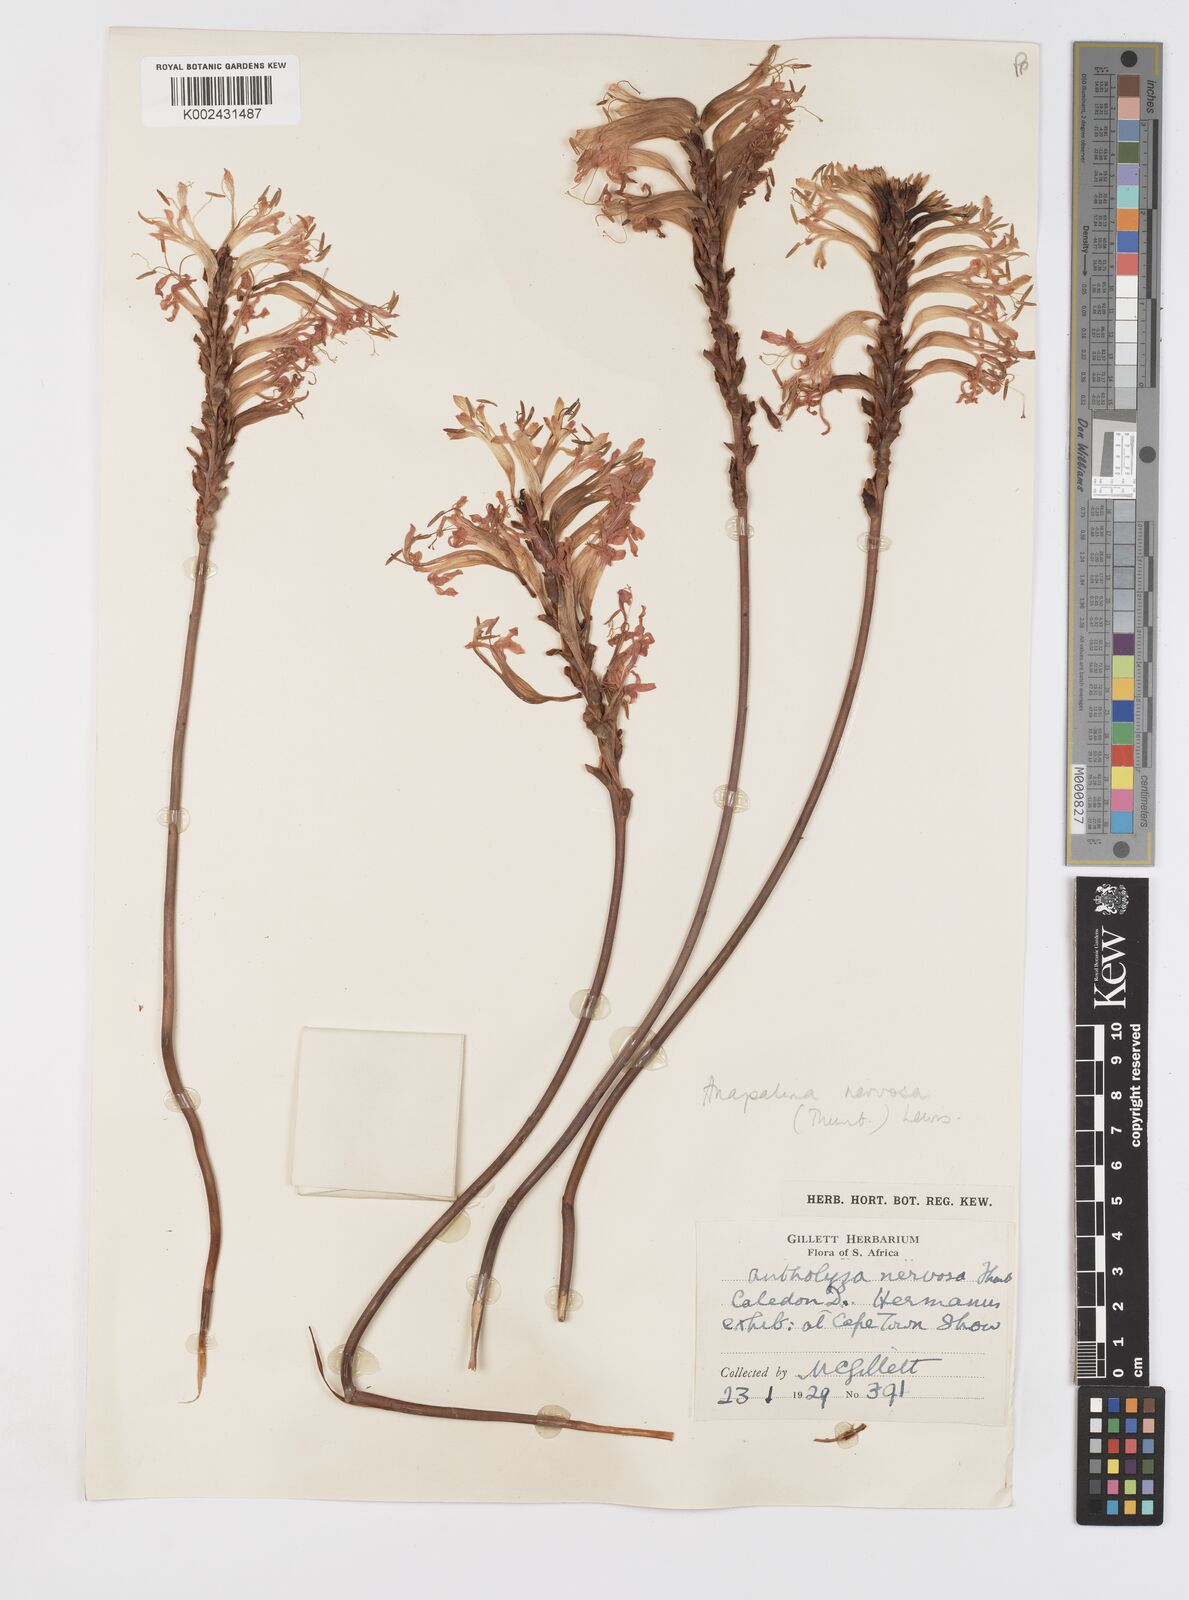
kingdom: Plantae
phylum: Tracheophyta
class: Liliopsida
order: Asparagales
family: Iridaceae
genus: Tritoniopsis
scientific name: Tritoniopsis nervosa
